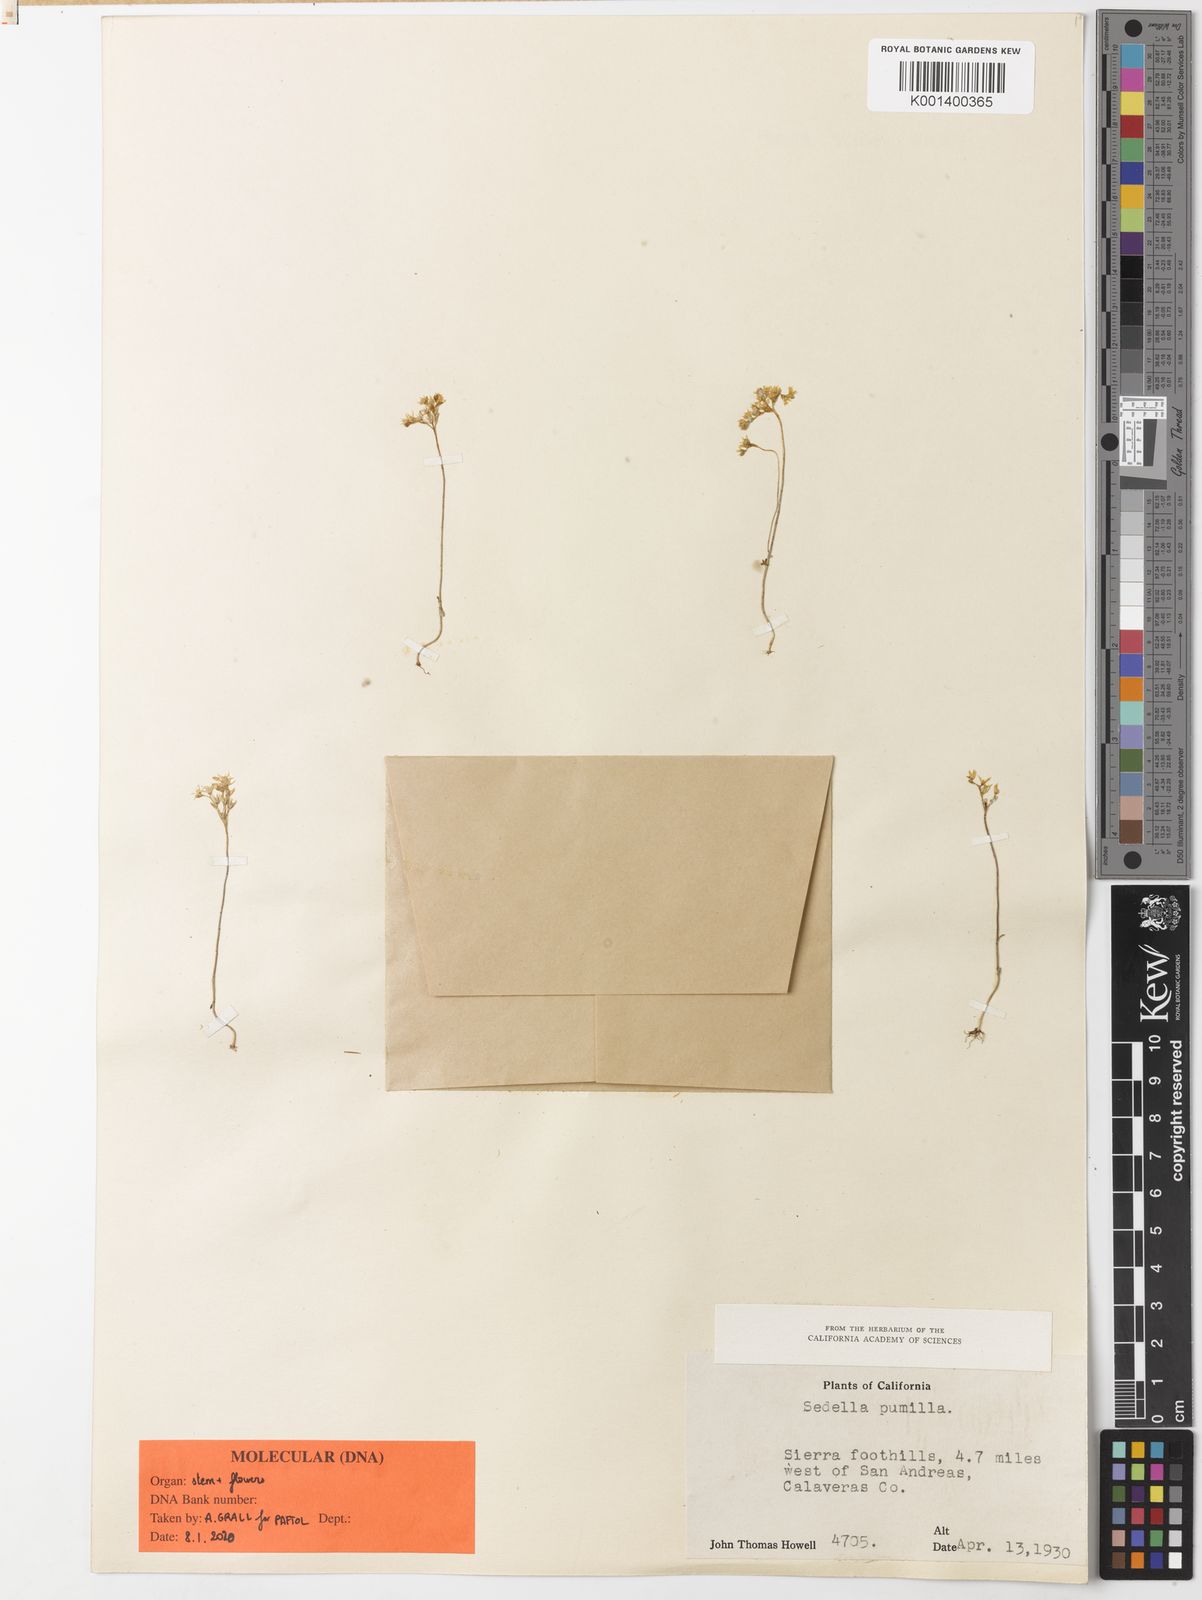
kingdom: Plantae
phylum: Tracheophyta
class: Magnoliopsida
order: Saxifragales
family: Crassulaceae
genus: Sedella
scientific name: Sedella pumila
